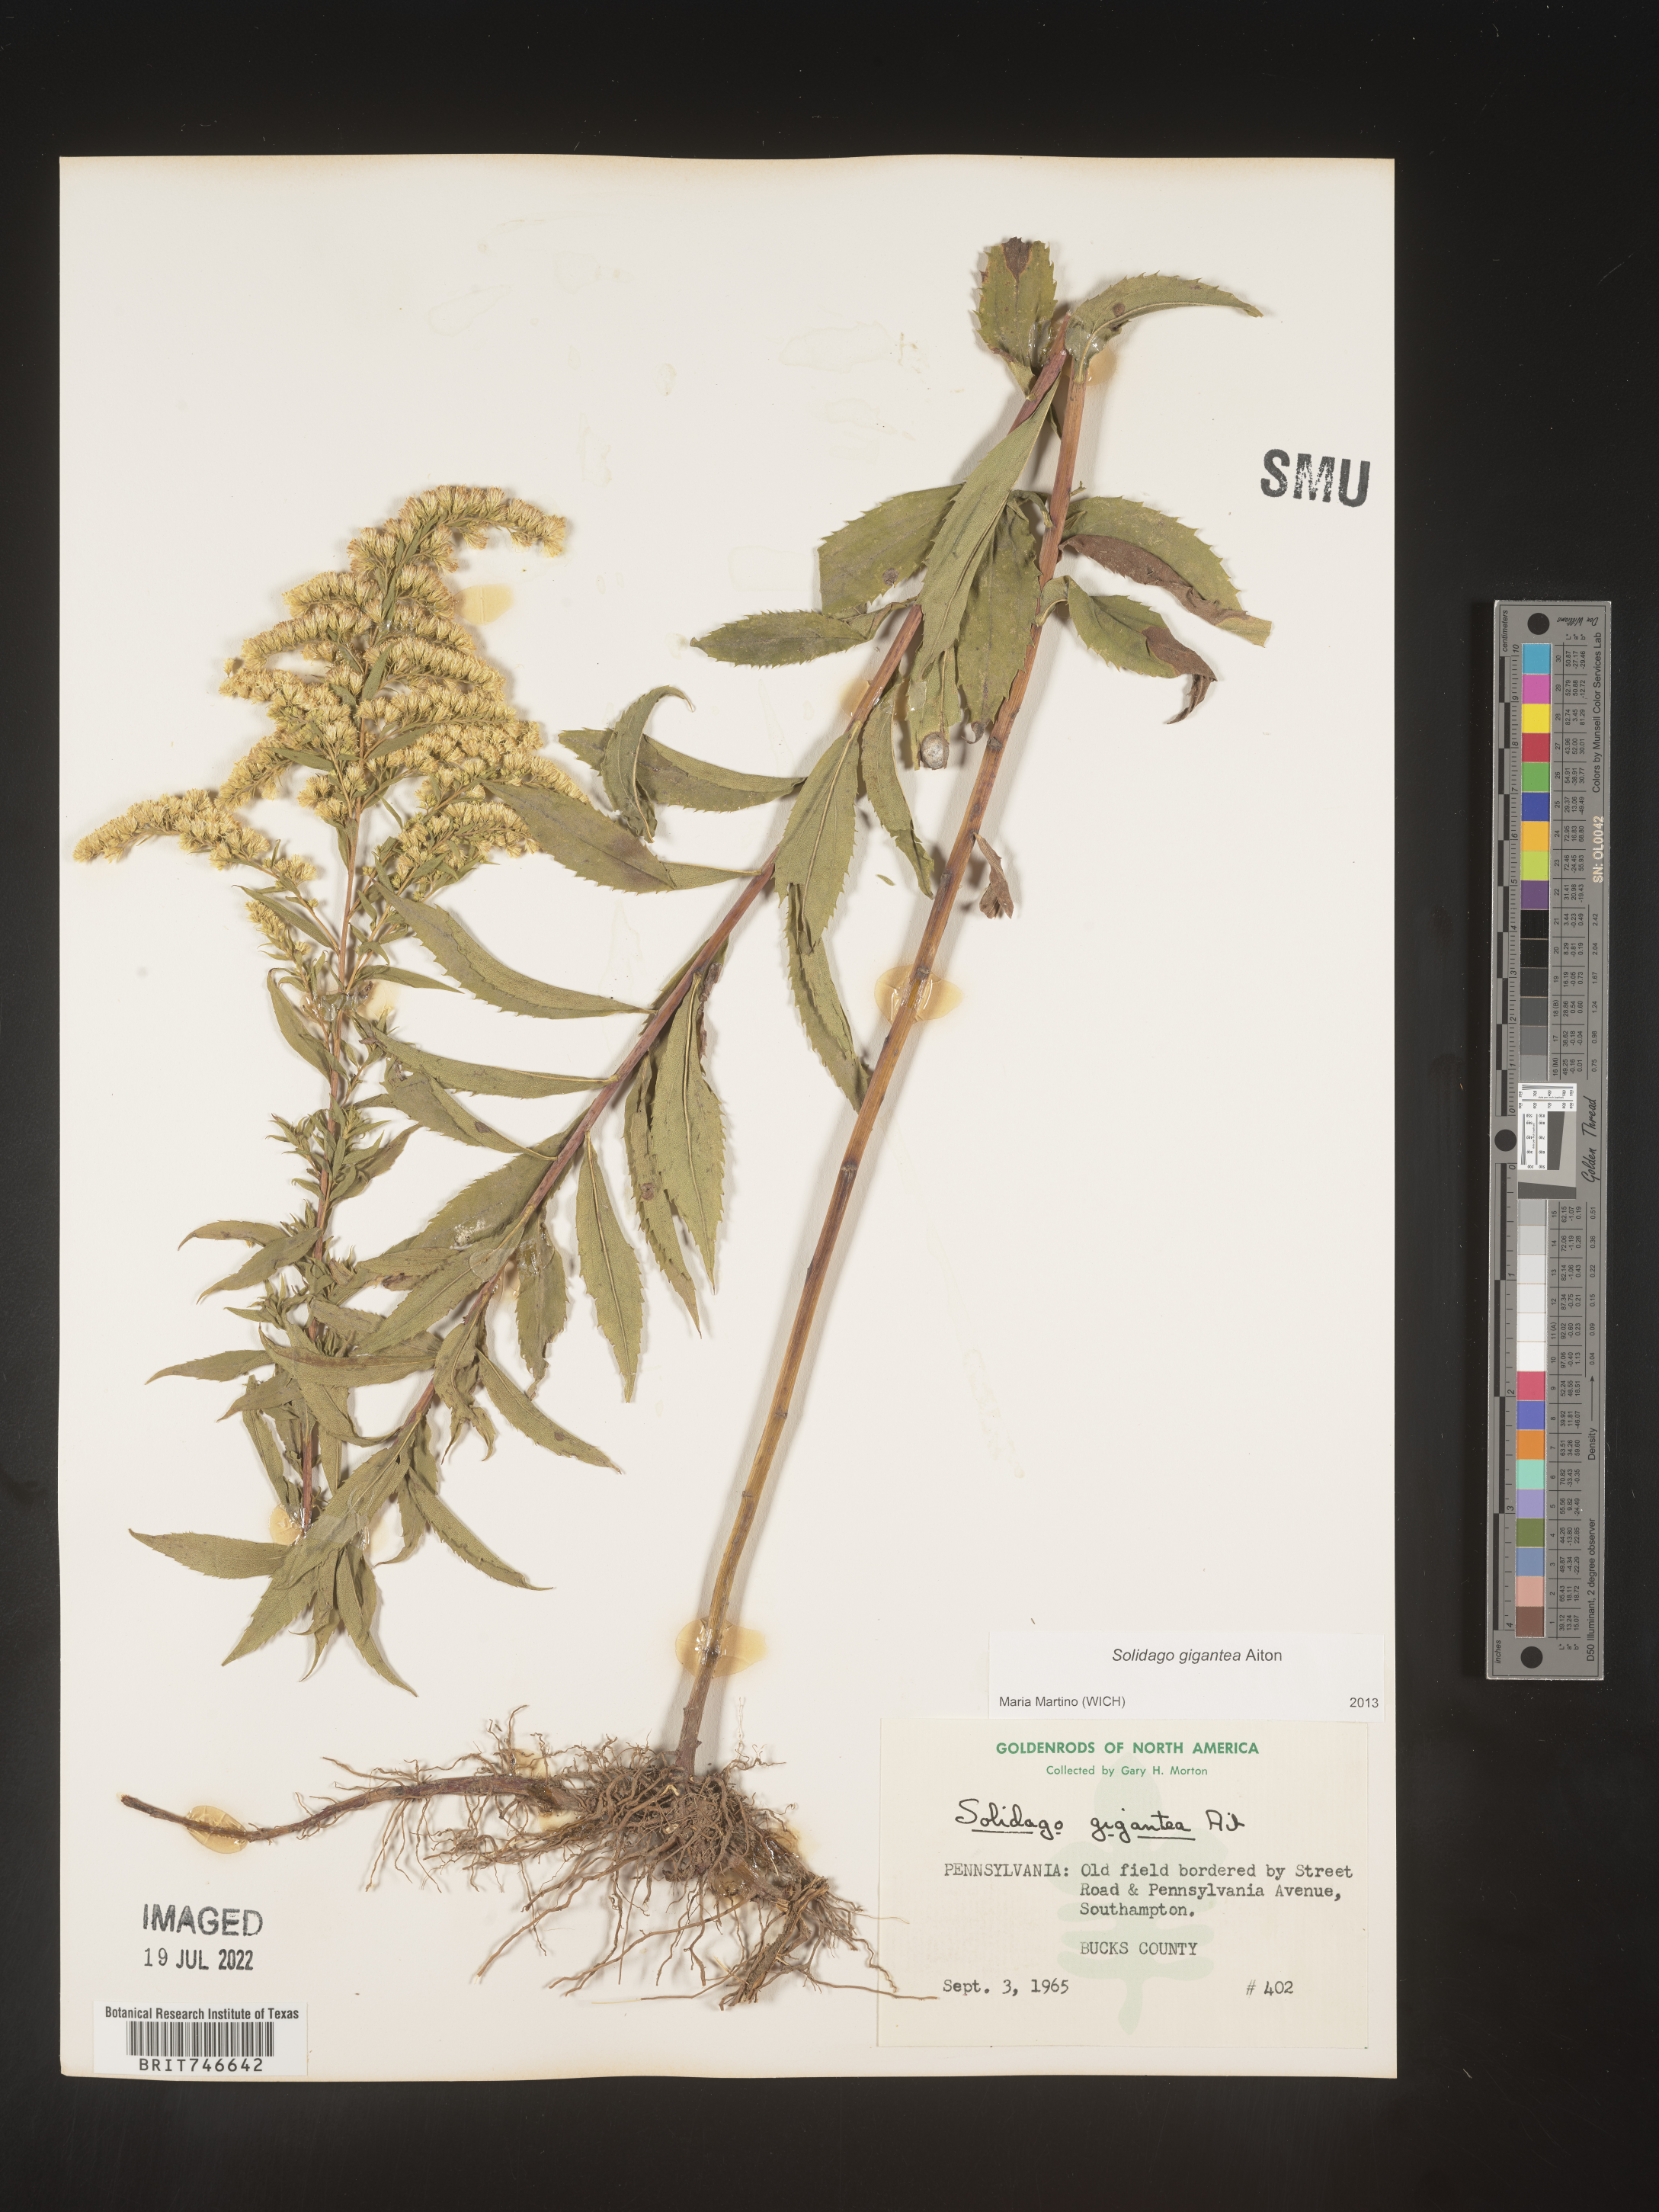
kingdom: Plantae
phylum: Tracheophyta
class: Magnoliopsida
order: Asterales
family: Asteraceae
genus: Solidago
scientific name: Solidago gigantea
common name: Giant goldenrod
